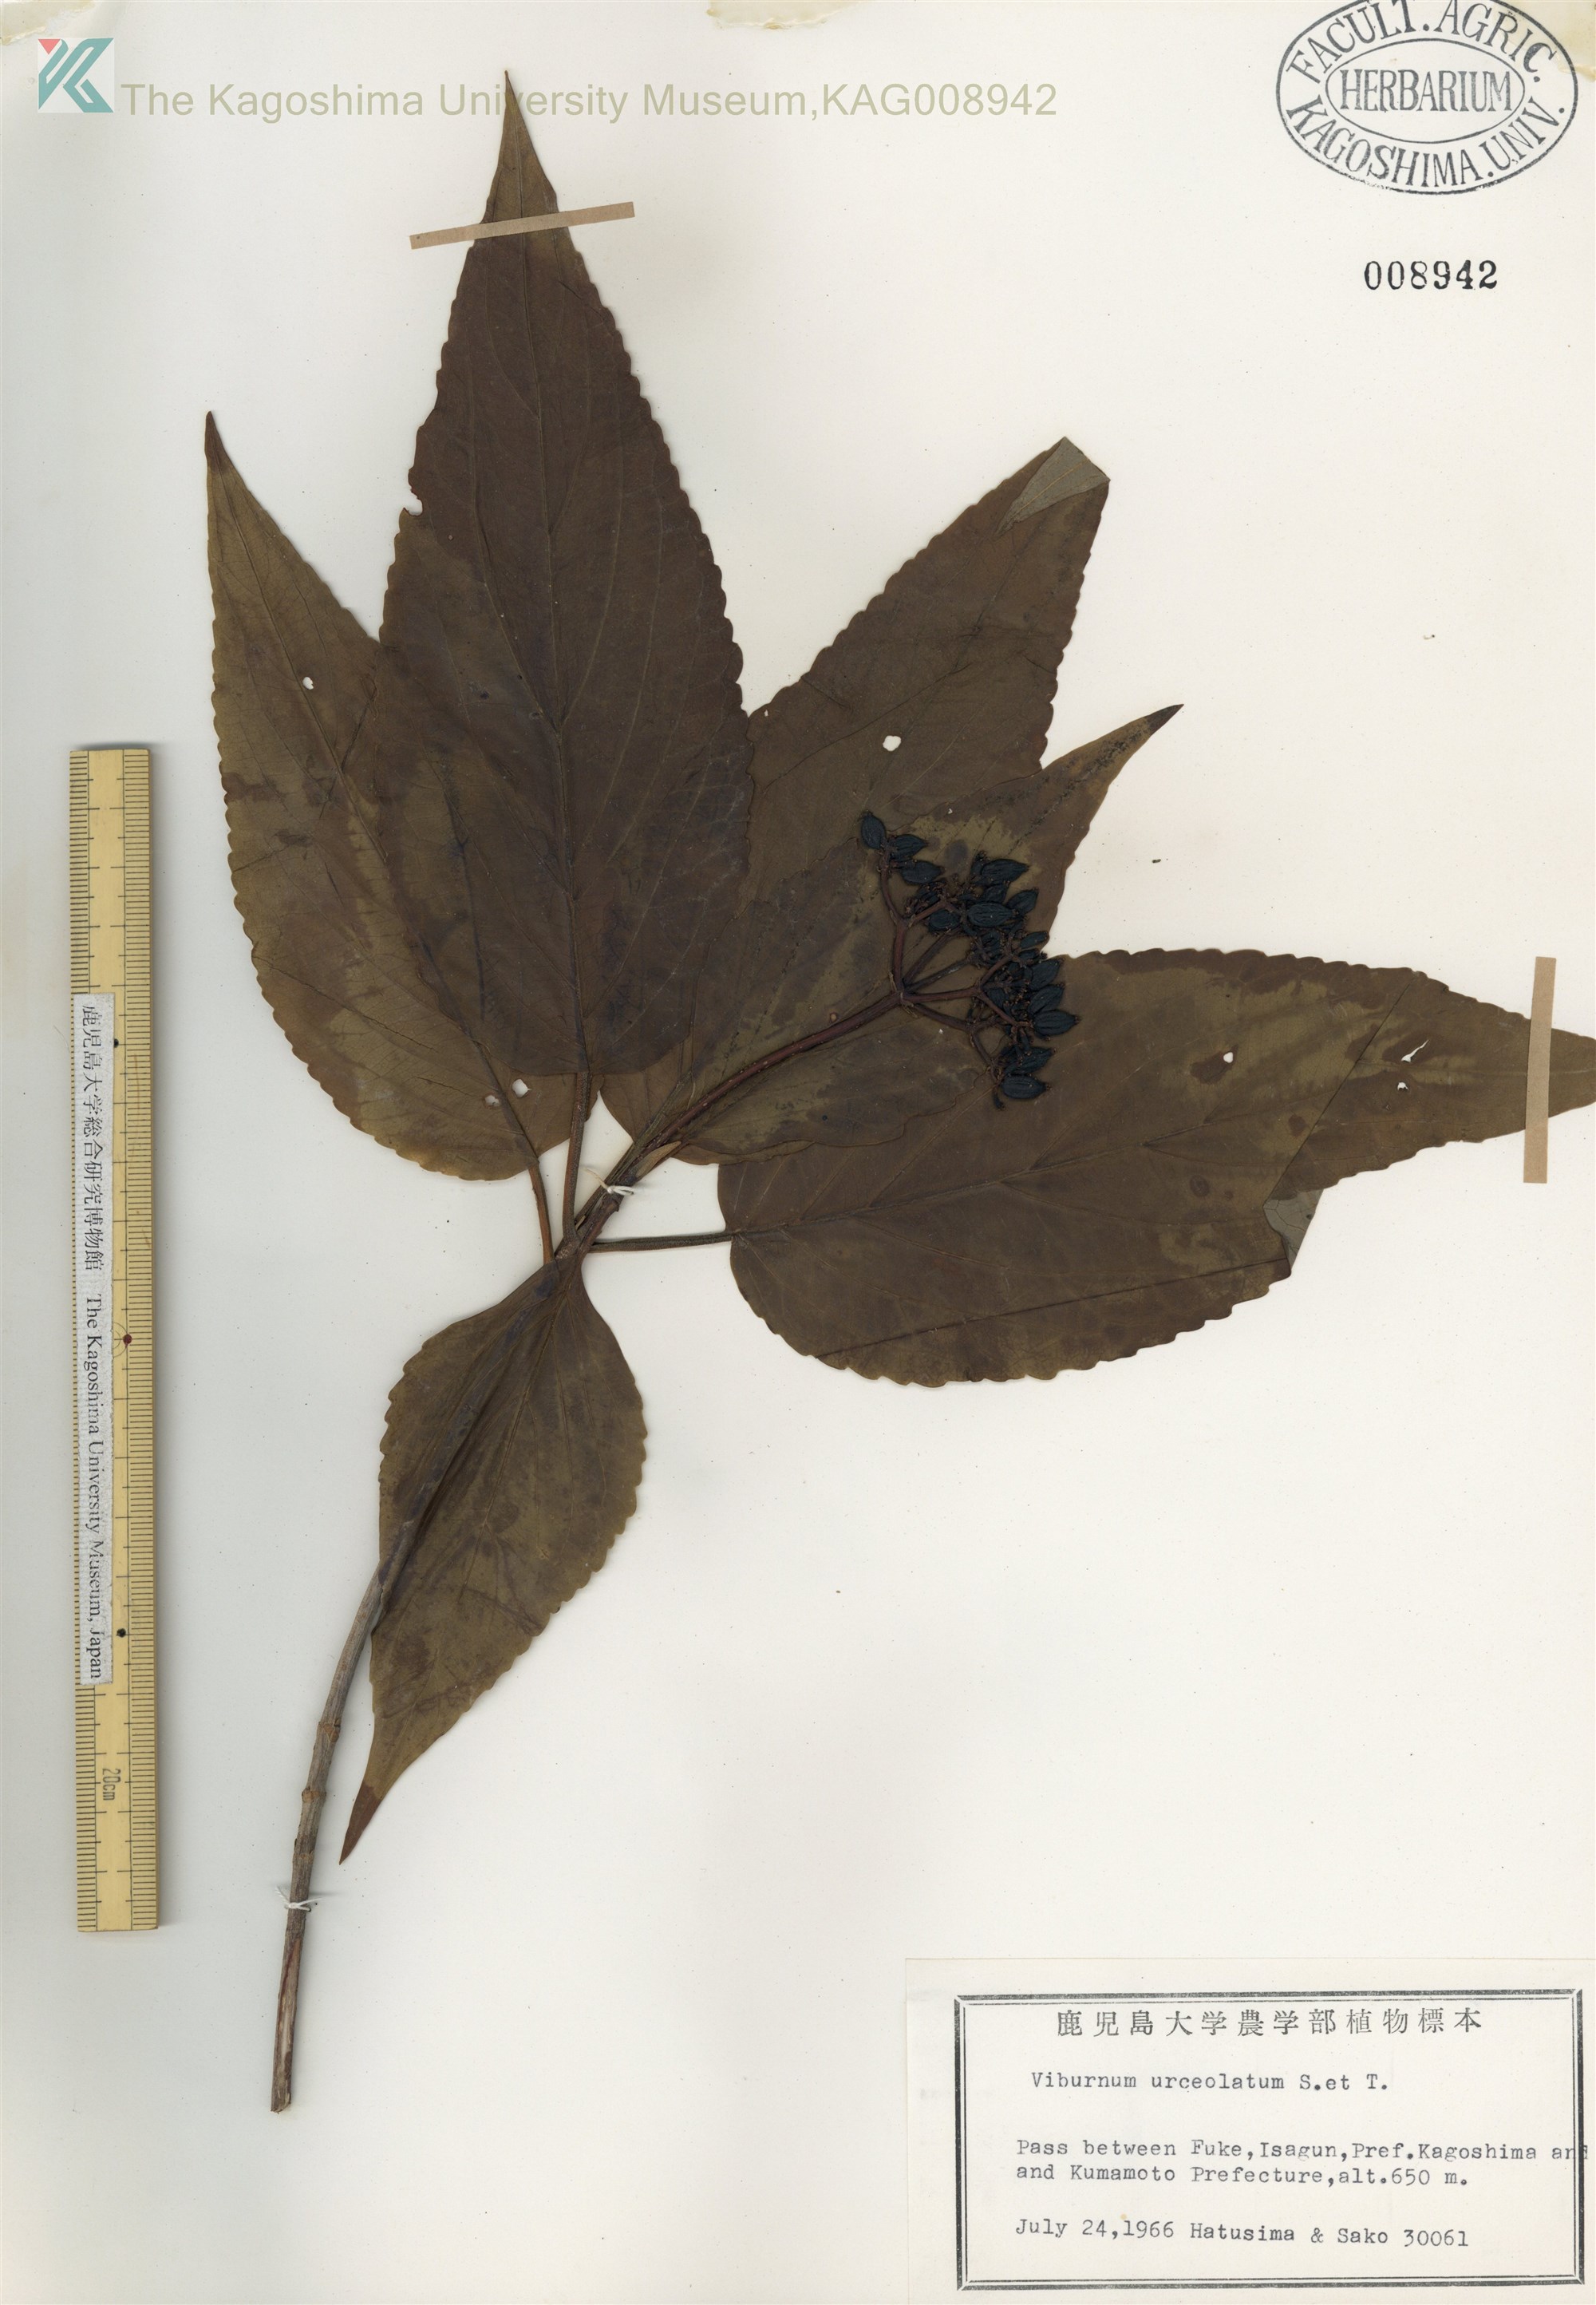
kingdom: Plantae
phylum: Tracheophyta
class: Magnoliopsida
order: Dipsacales
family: Viburnaceae
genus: Viburnum
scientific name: Viburnum urceolatum
